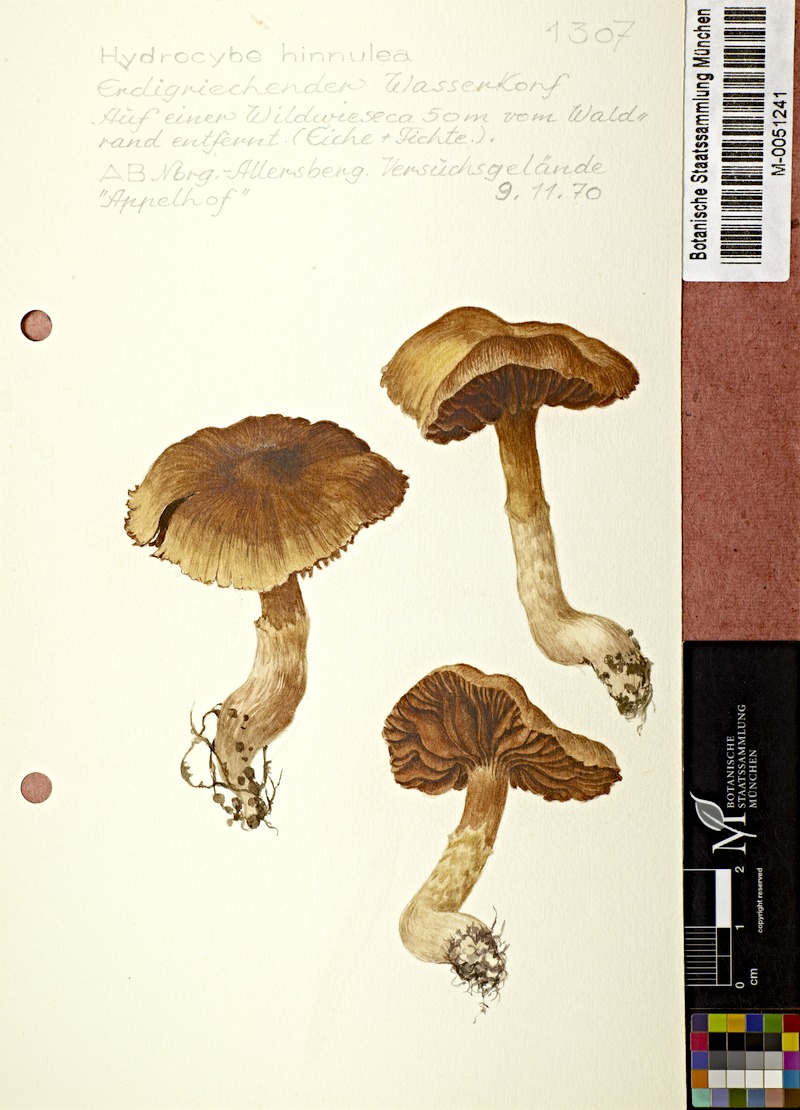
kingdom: Fungi
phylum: Basidiomycota
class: Agaricomycetes
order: Agaricales
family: Cortinariaceae
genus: Cortinarius
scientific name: Cortinarius hinnuleus
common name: Earthy webcap
